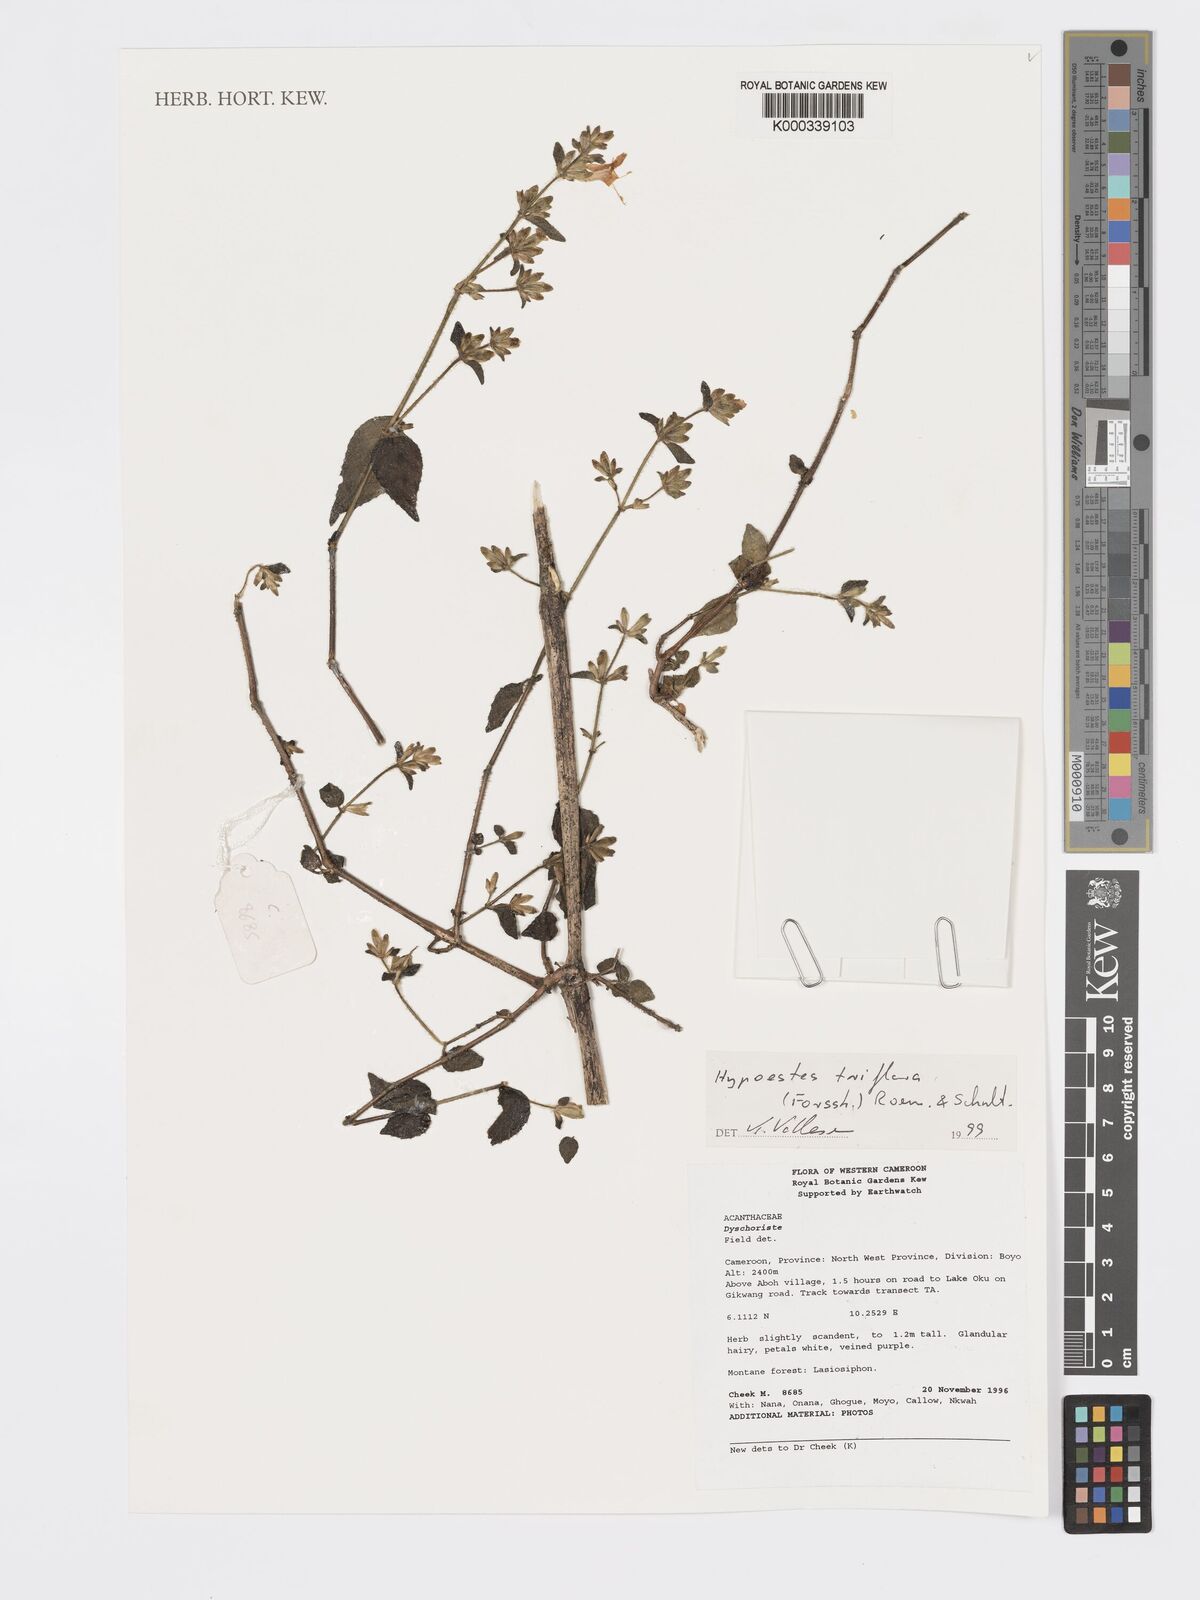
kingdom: Plantae
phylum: Tracheophyta
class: Magnoliopsida
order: Lamiales
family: Acanthaceae
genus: Hypoestes
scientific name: Hypoestes triflora
